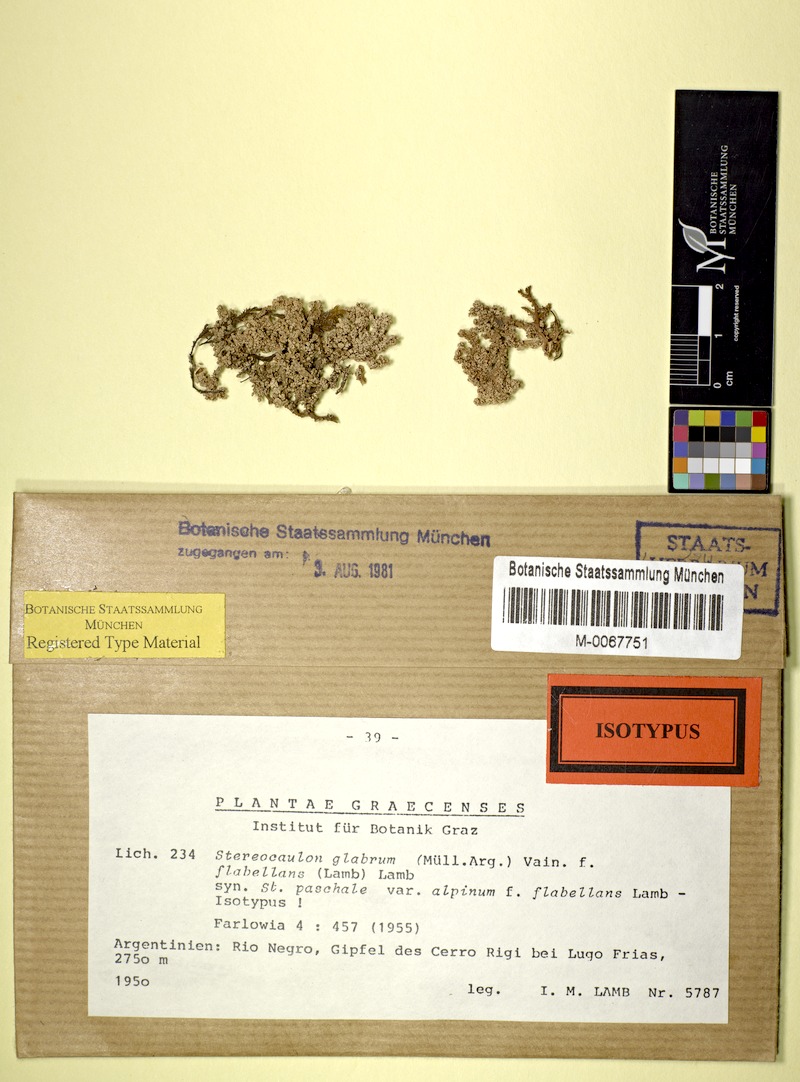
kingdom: Fungi
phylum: Ascomycota
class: Lecanoromycetes
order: Lecanorales
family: Stereocaulaceae
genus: Stereocaulon
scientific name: Stereocaulon glabrum
